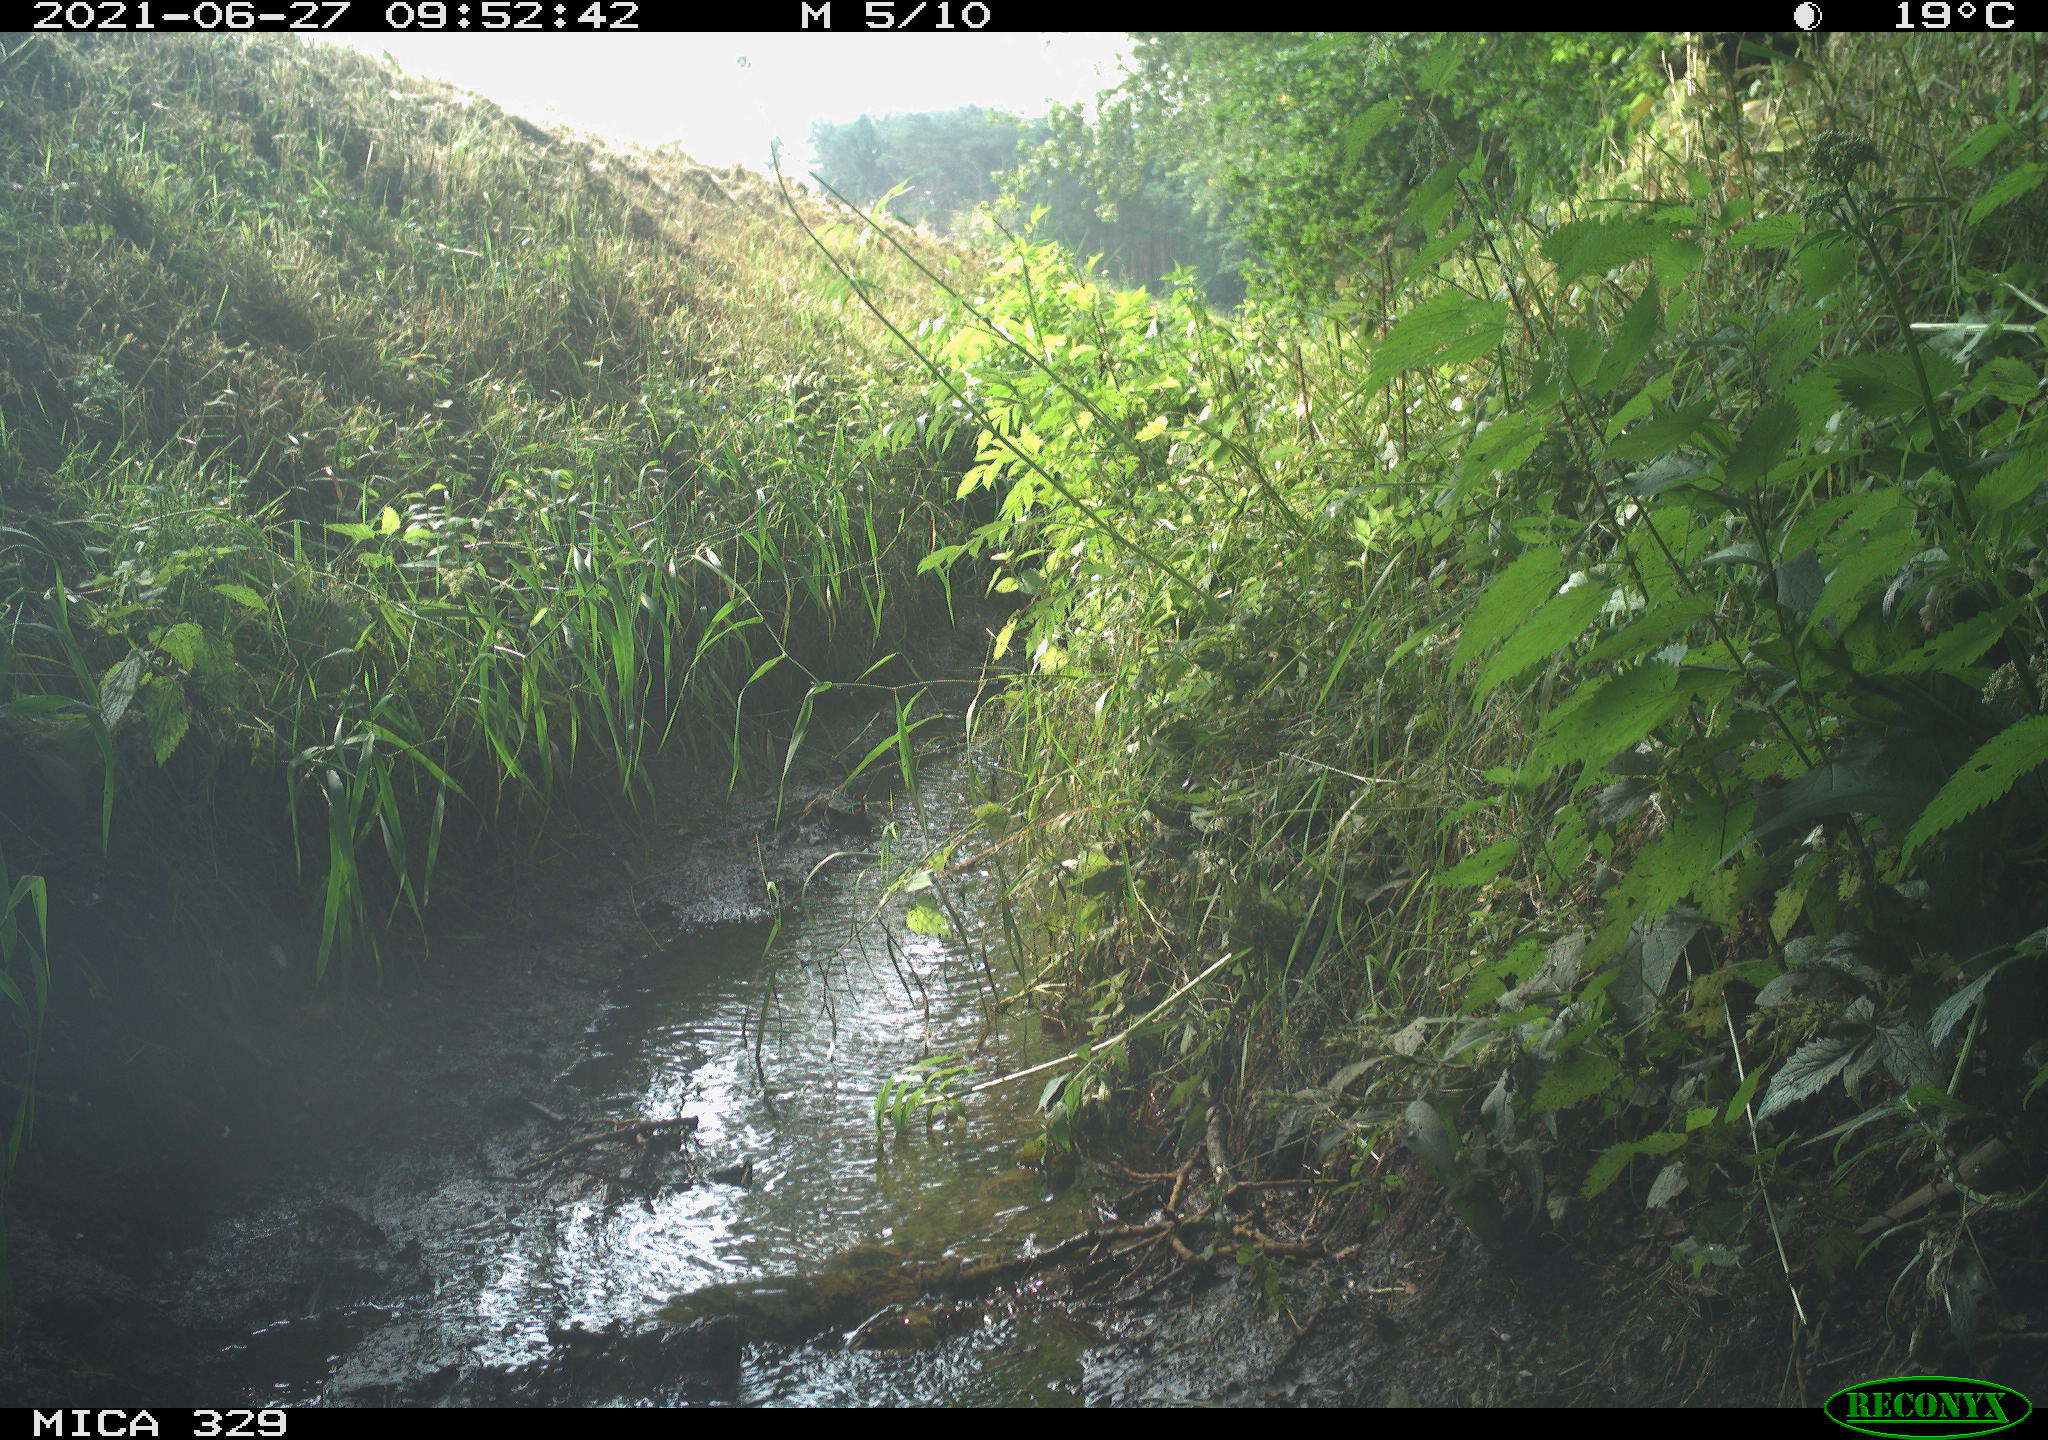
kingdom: Animalia
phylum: Chordata
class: Aves
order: Columbiformes
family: Columbidae
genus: Columba
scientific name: Columba palumbus
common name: Common wood pigeon
